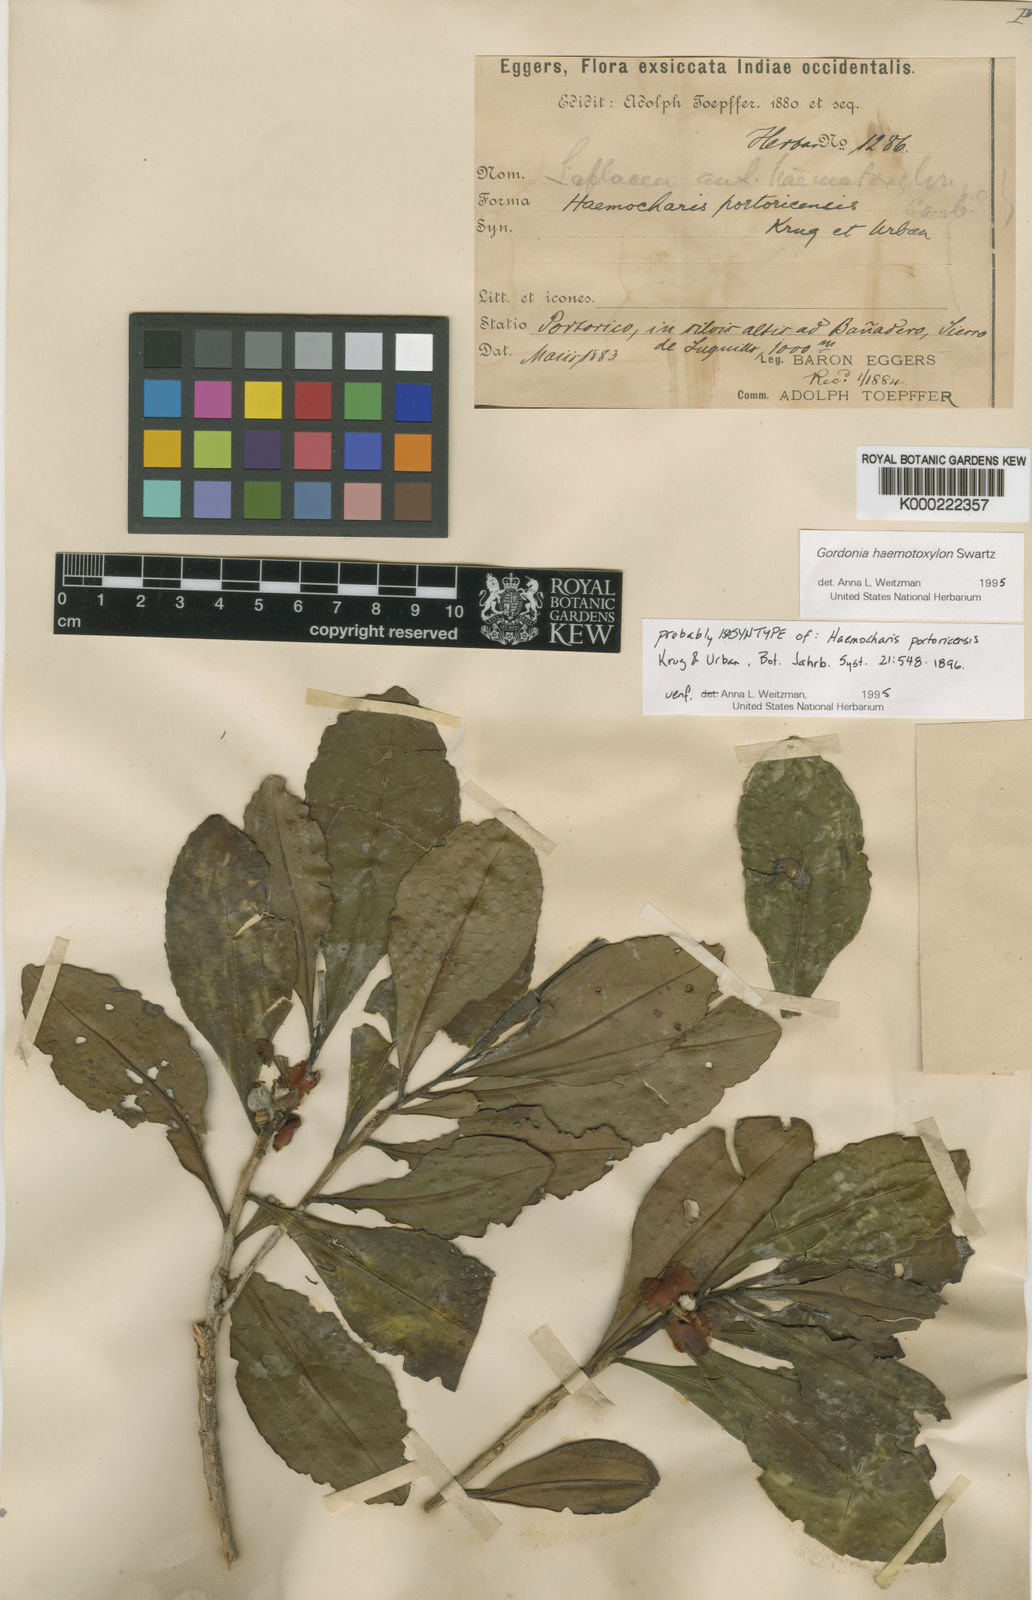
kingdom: Plantae
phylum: Tracheophyta
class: Magnoliopsida
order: Ericales
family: Theaceae
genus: Gordonia
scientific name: Gordonia portoricensis
